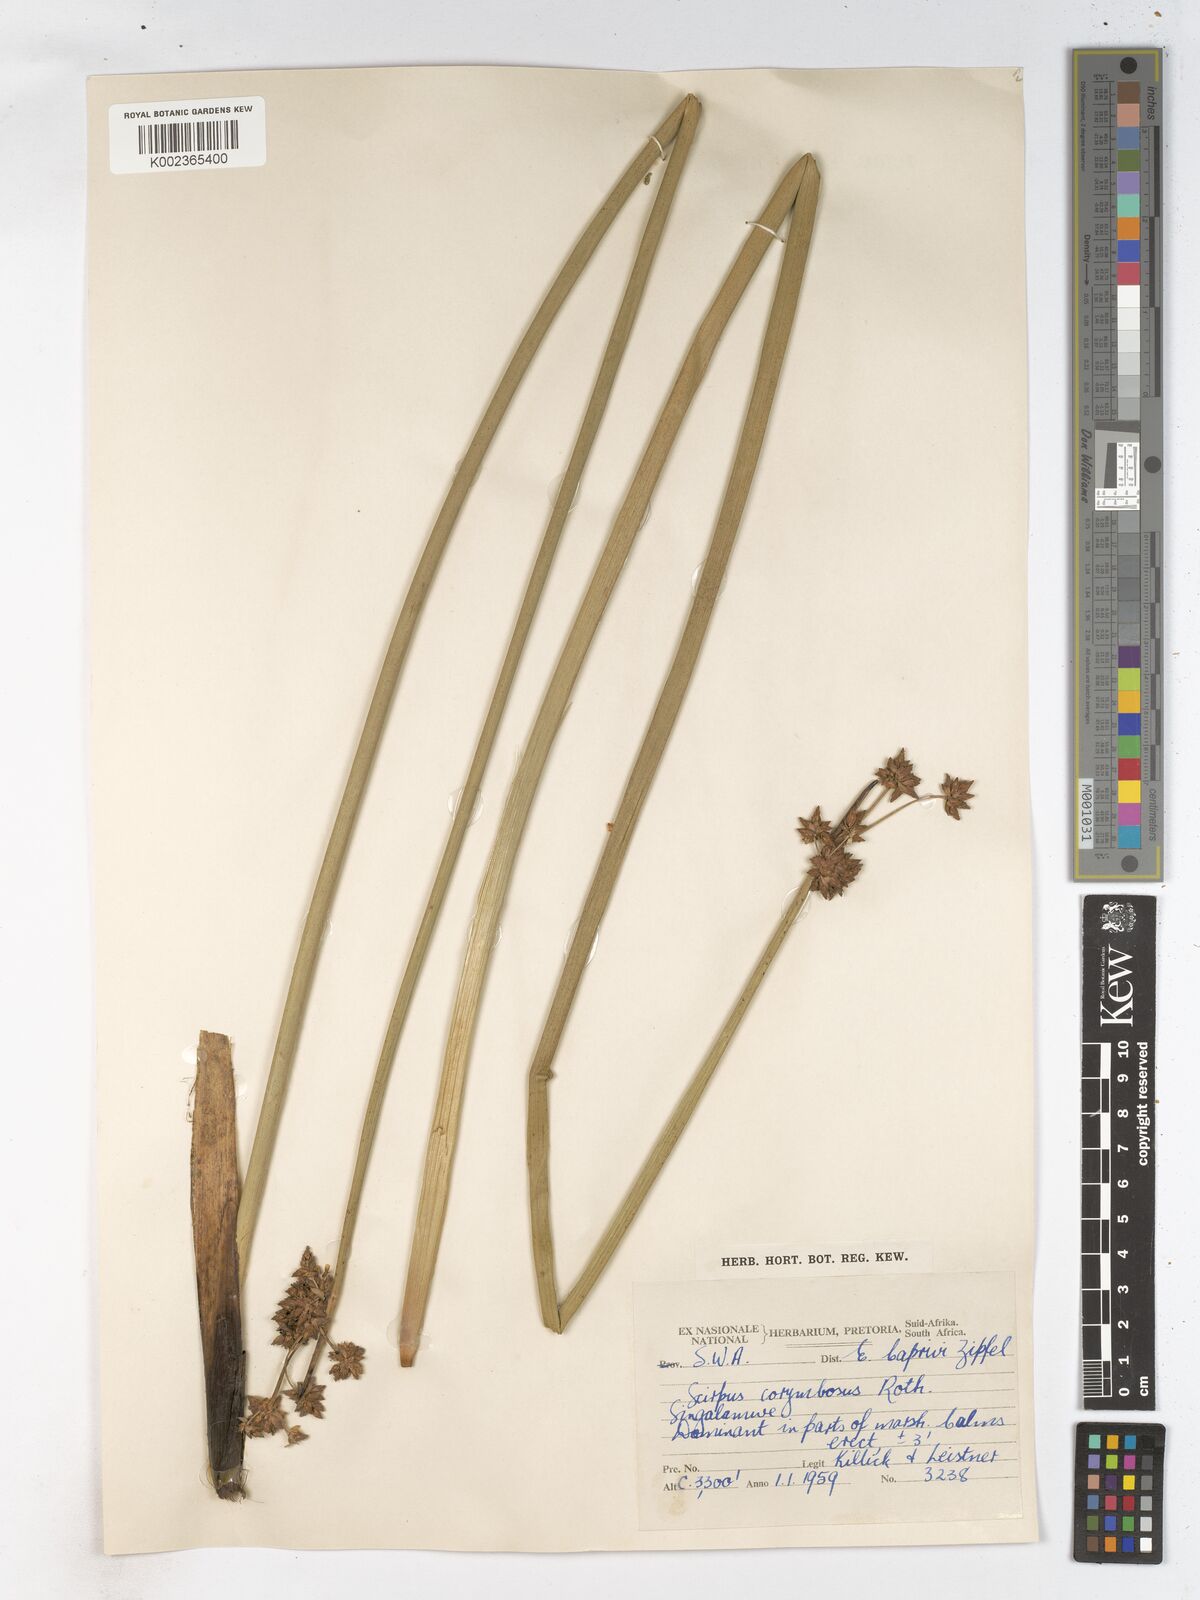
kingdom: Plantae
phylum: Tracheophyta
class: Liliopsida
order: Poales
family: Cyperaceae
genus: Schoenoplectiella
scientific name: Schoenoplectiella brachyceras
